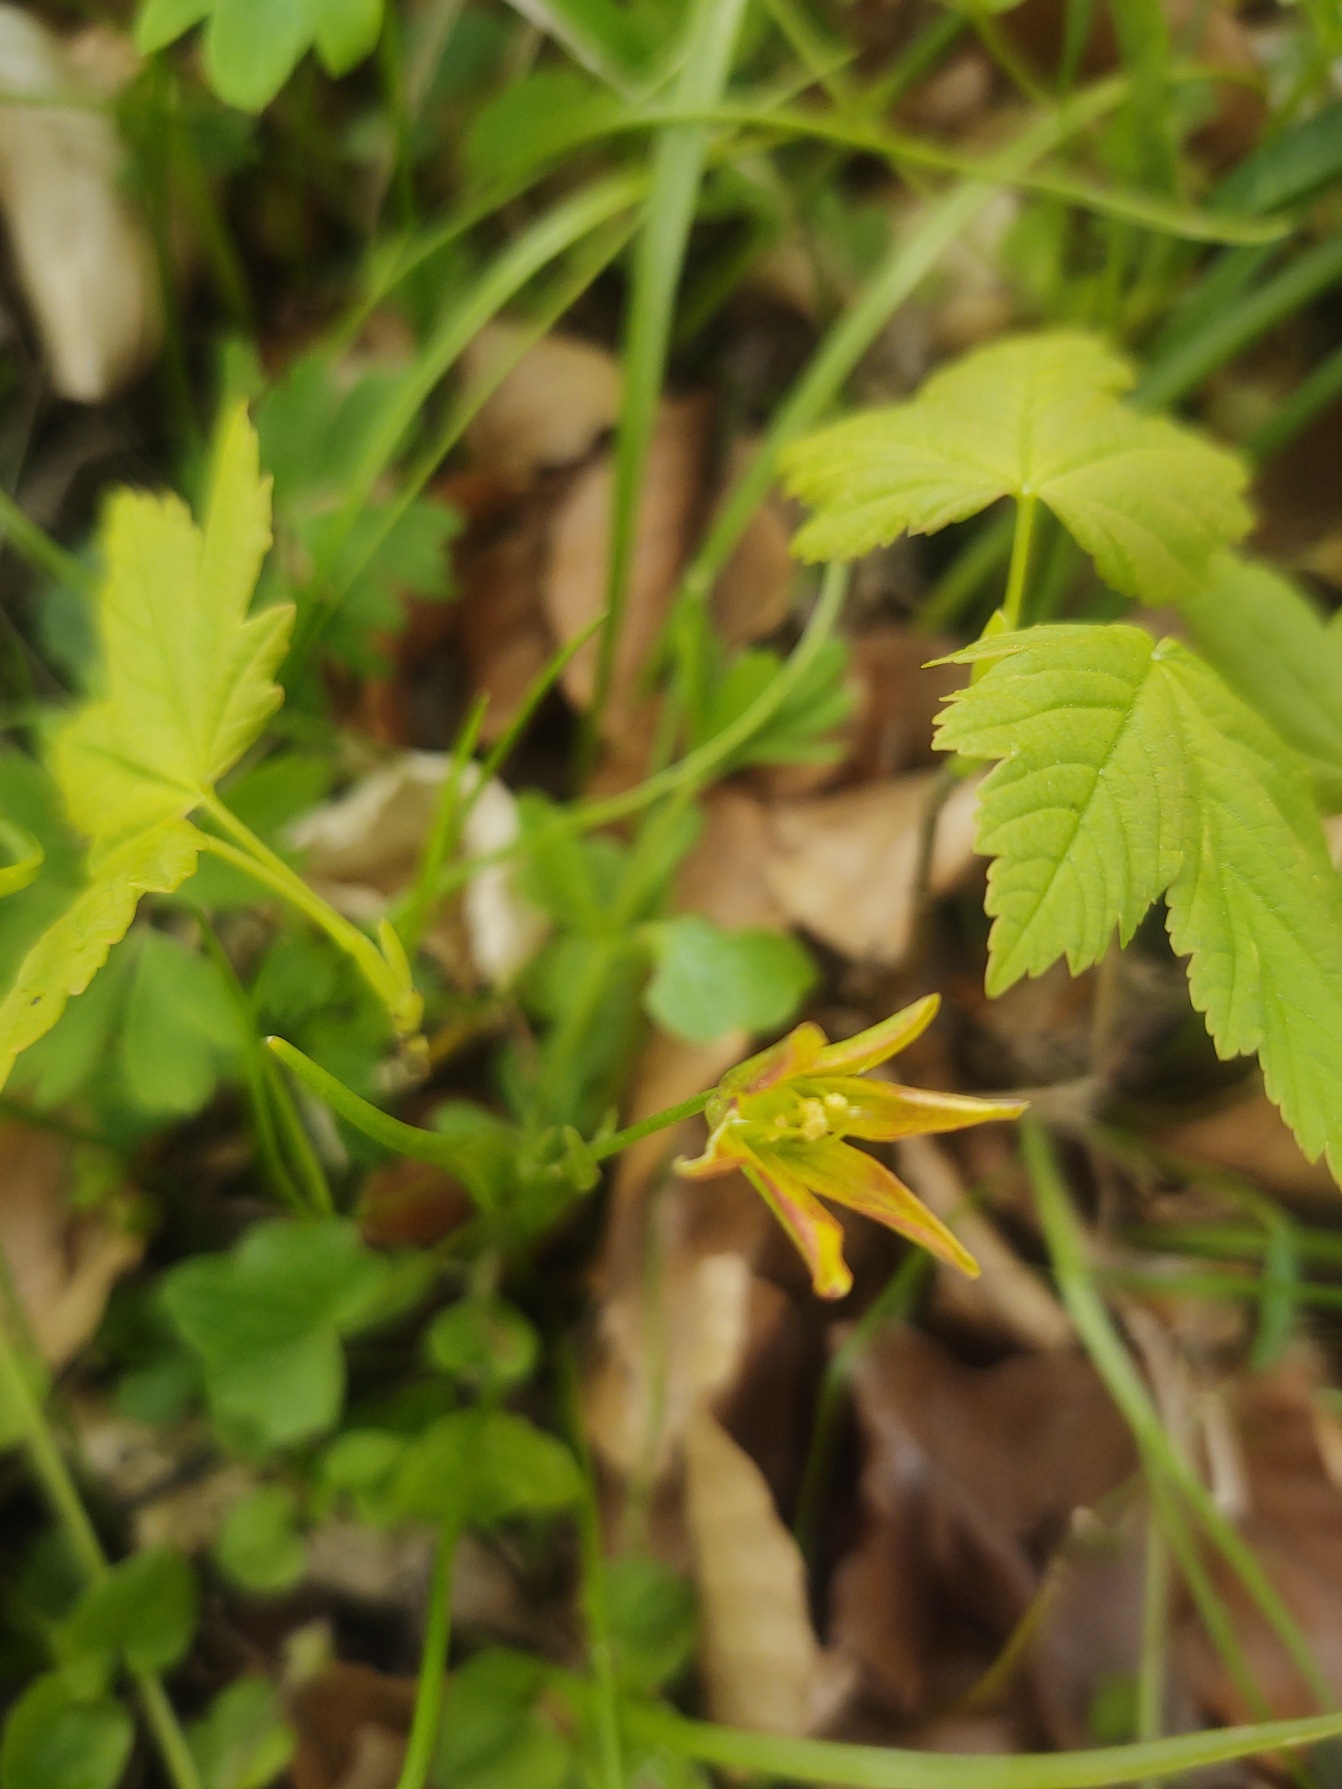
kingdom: Plantae
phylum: Tracheophyta
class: Liliopsida
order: Liliales
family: Liliaceae
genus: Gagea
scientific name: Gagea spathacea
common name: Hylster-guldstjerne
